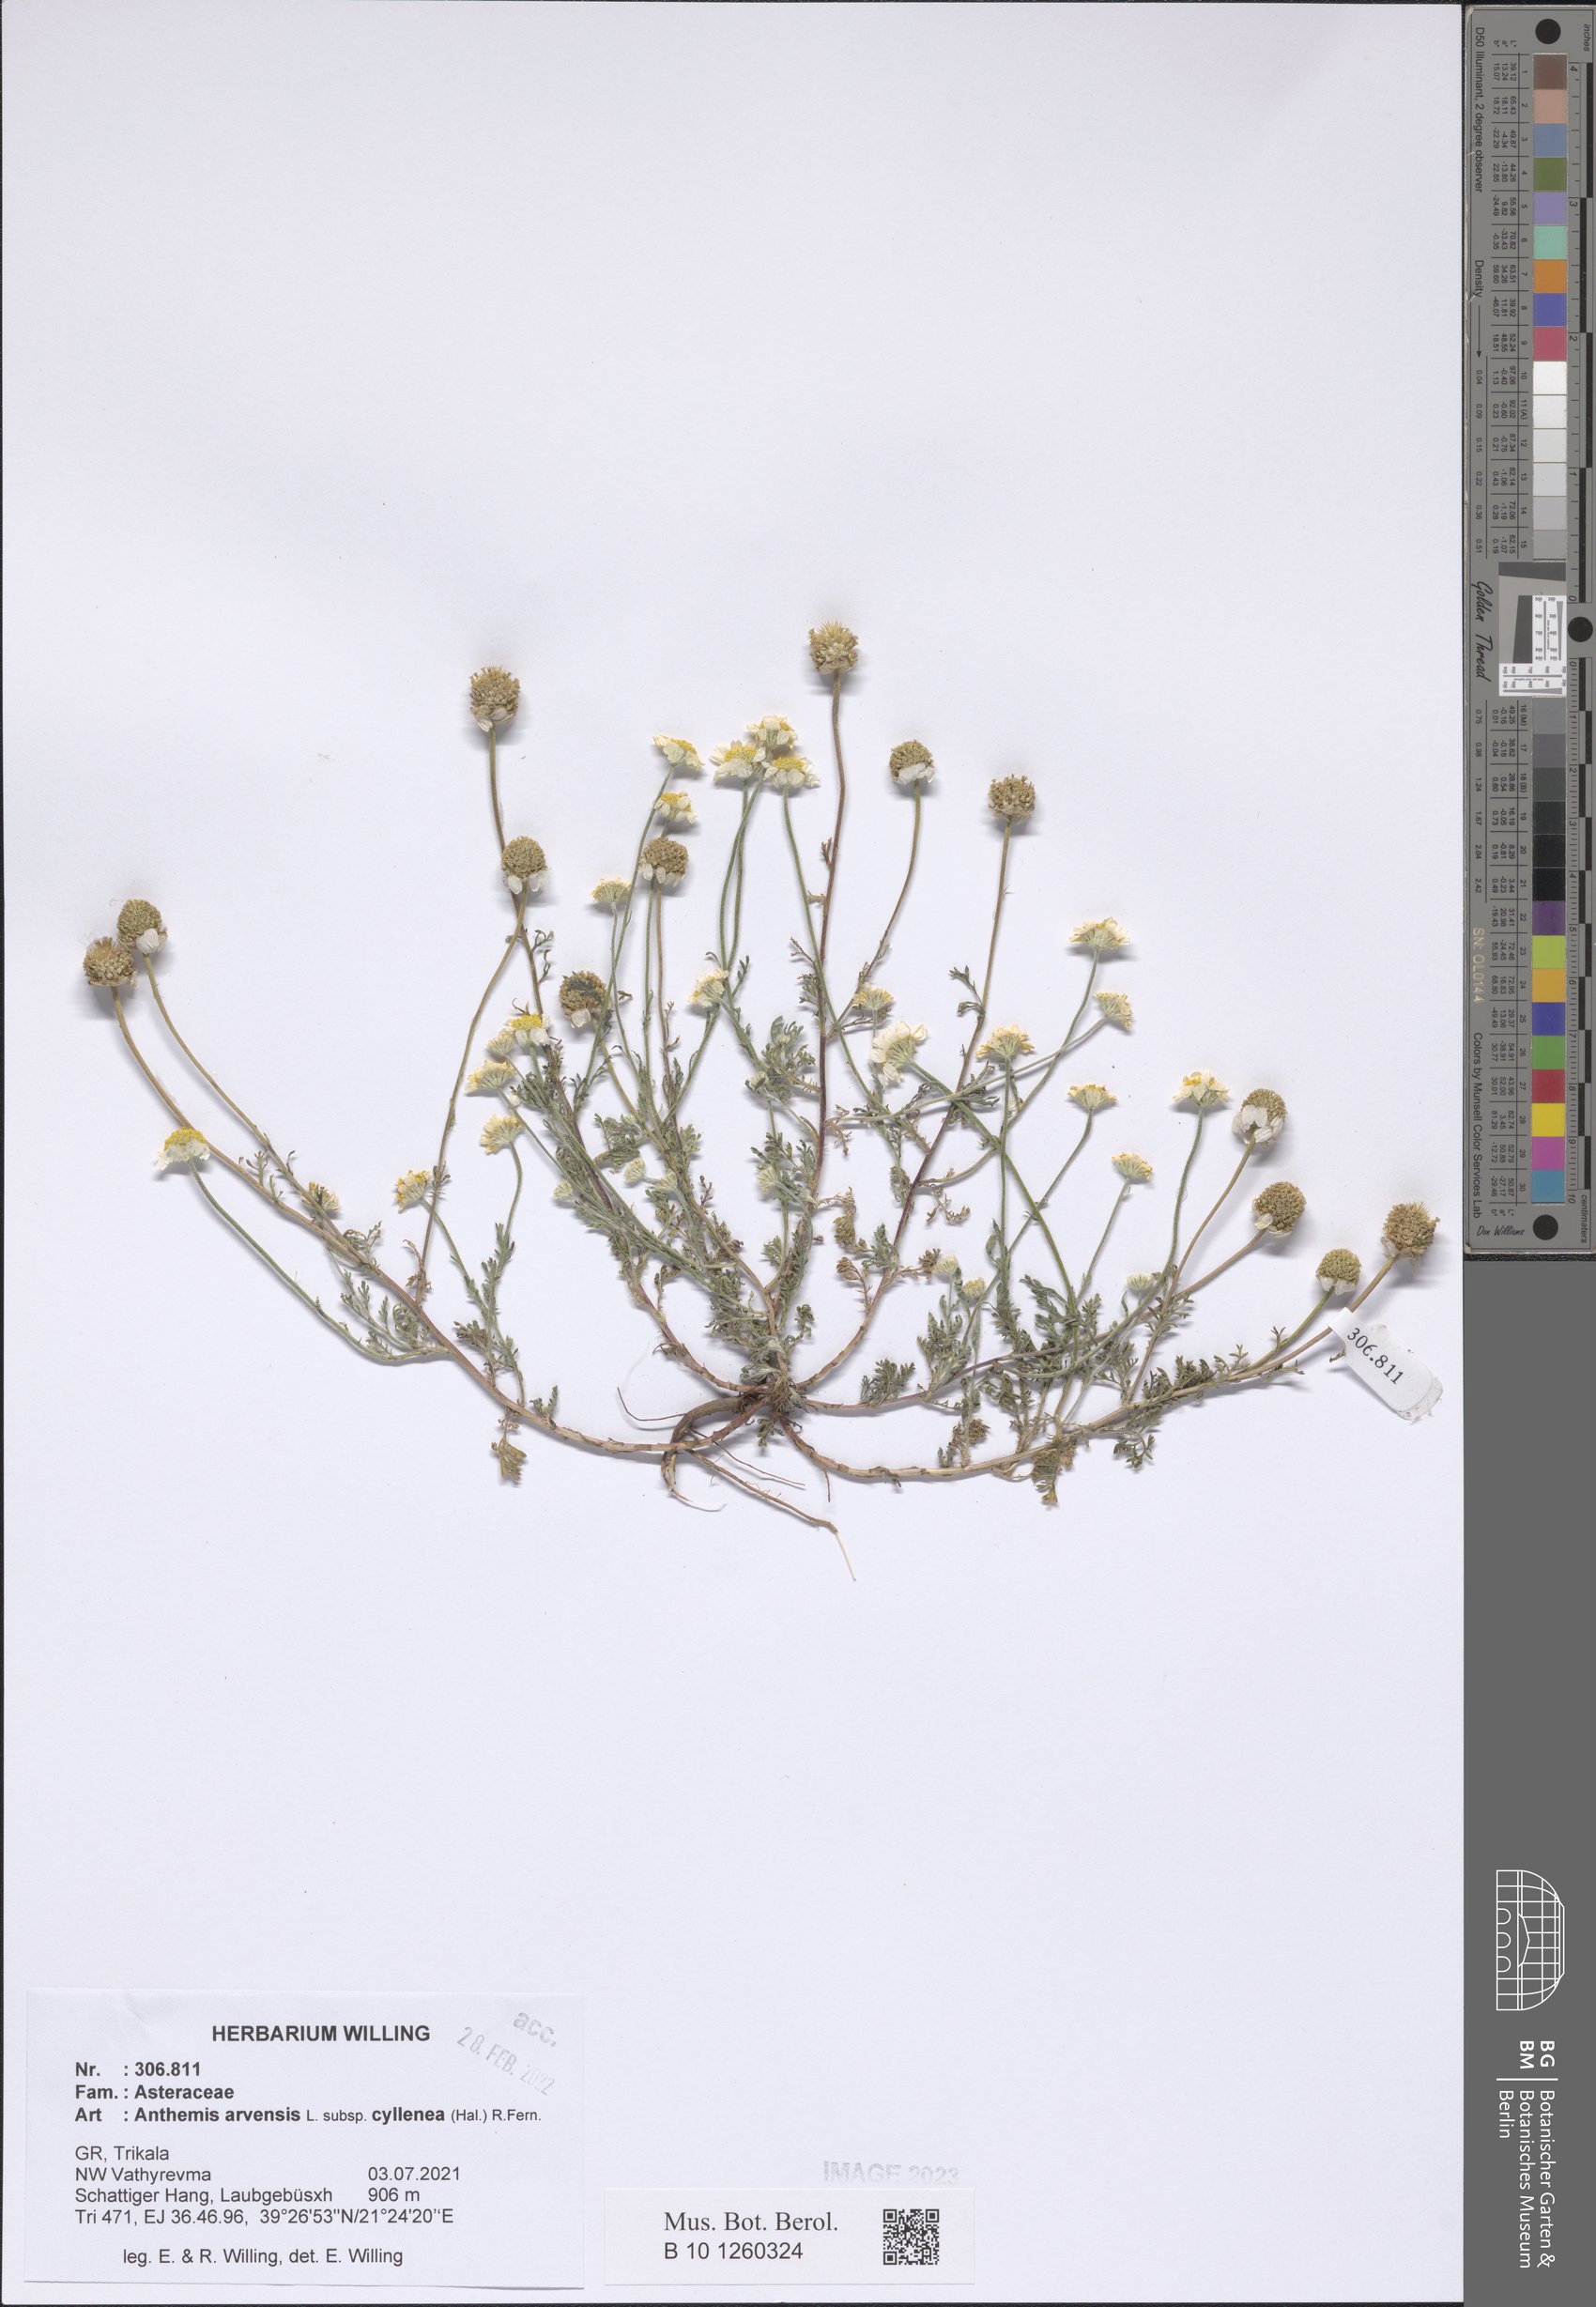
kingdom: Plantae
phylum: Tracheophyta
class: Magnoliopsida
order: Asterales
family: Asteraceae
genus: Anthemis
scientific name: Anthemis arvensis
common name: Corn chamomile
